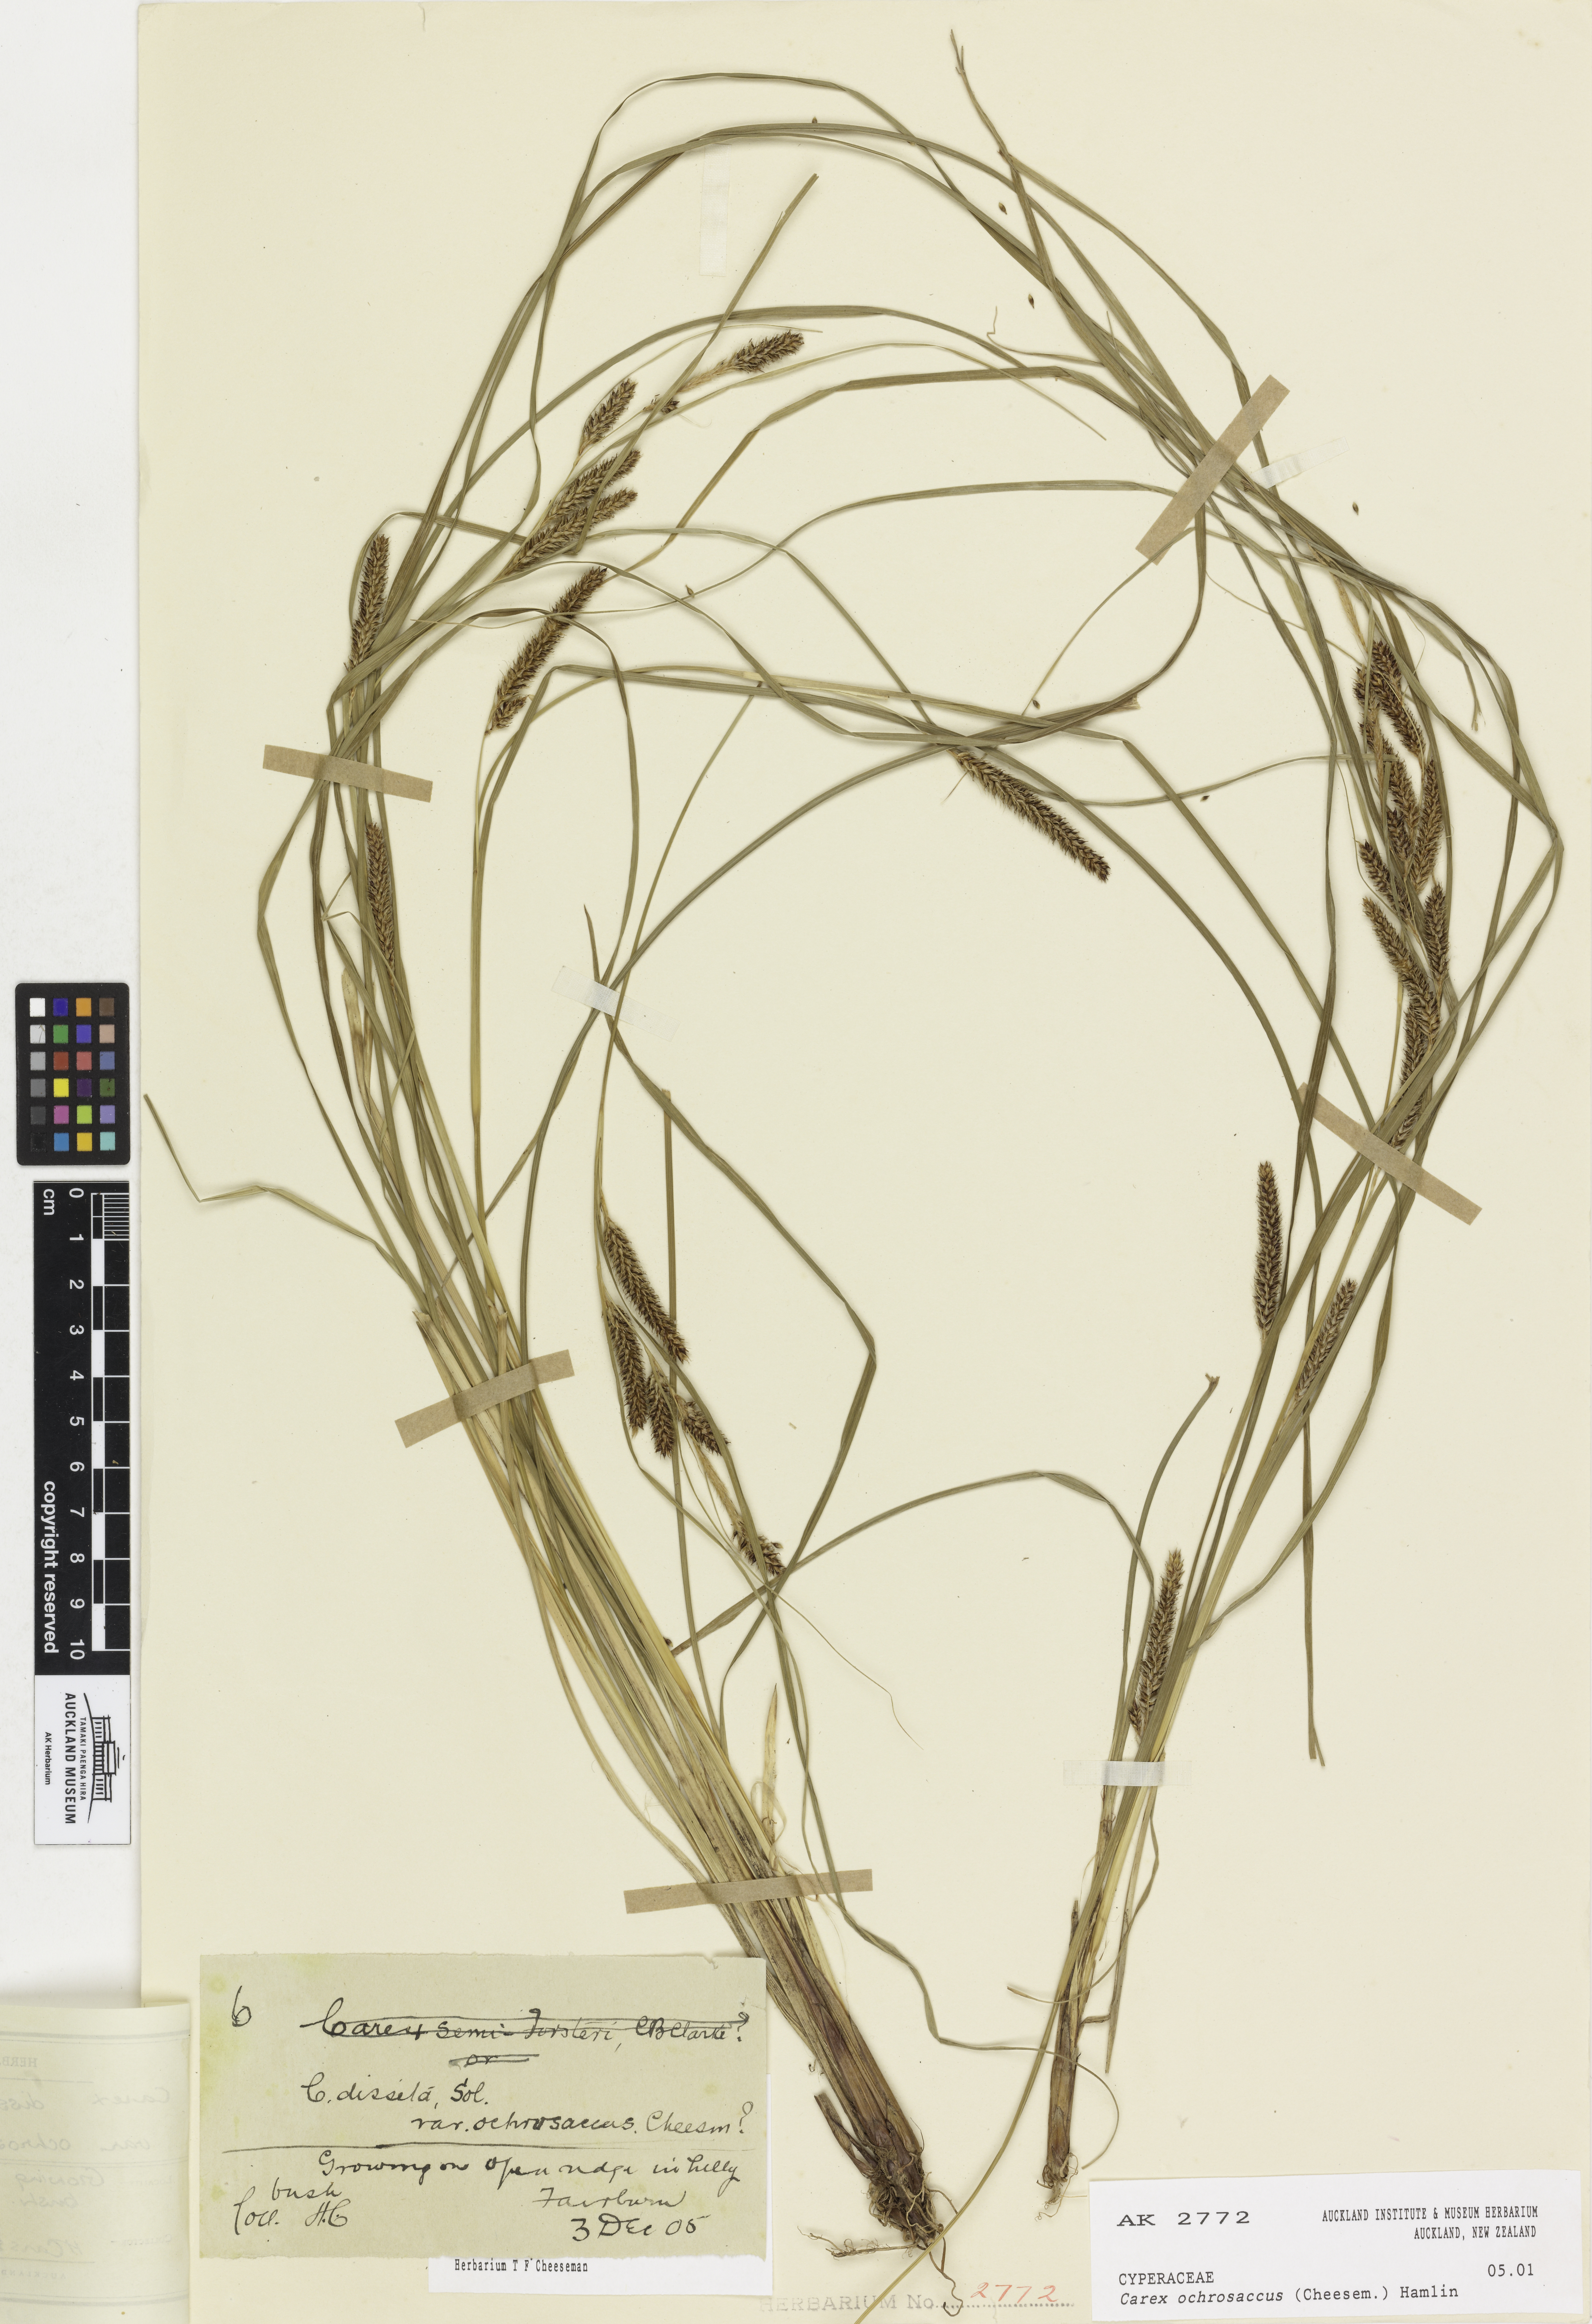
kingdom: Plantae
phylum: Tracheophyta
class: Liliopsida
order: Poales
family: Cyperaceae
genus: Carex
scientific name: Carex ochrosaccus
